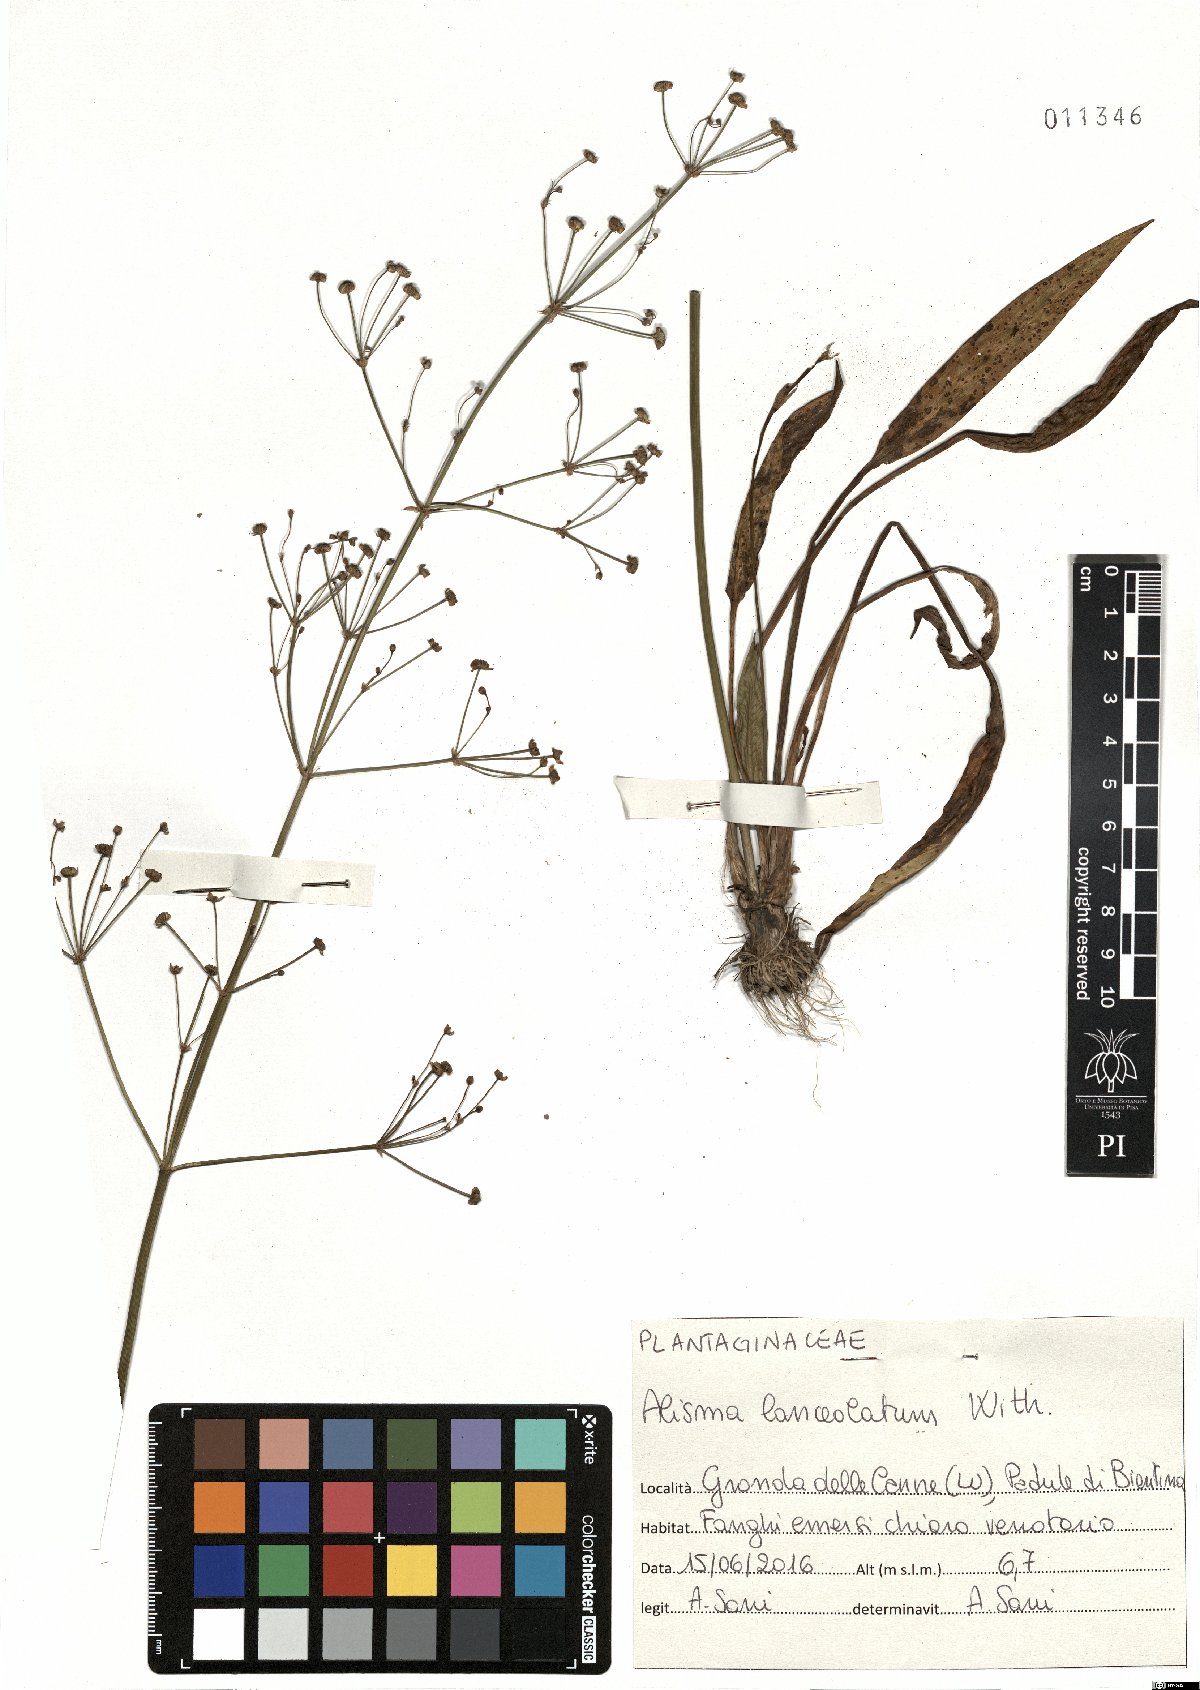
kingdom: Plantae
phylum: Tracheophyta
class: Liliopsida
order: Alismatales
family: Alismataceae
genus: Alisma
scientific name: Alisma lanceolatum
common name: Narrow-leaved water-plantain
